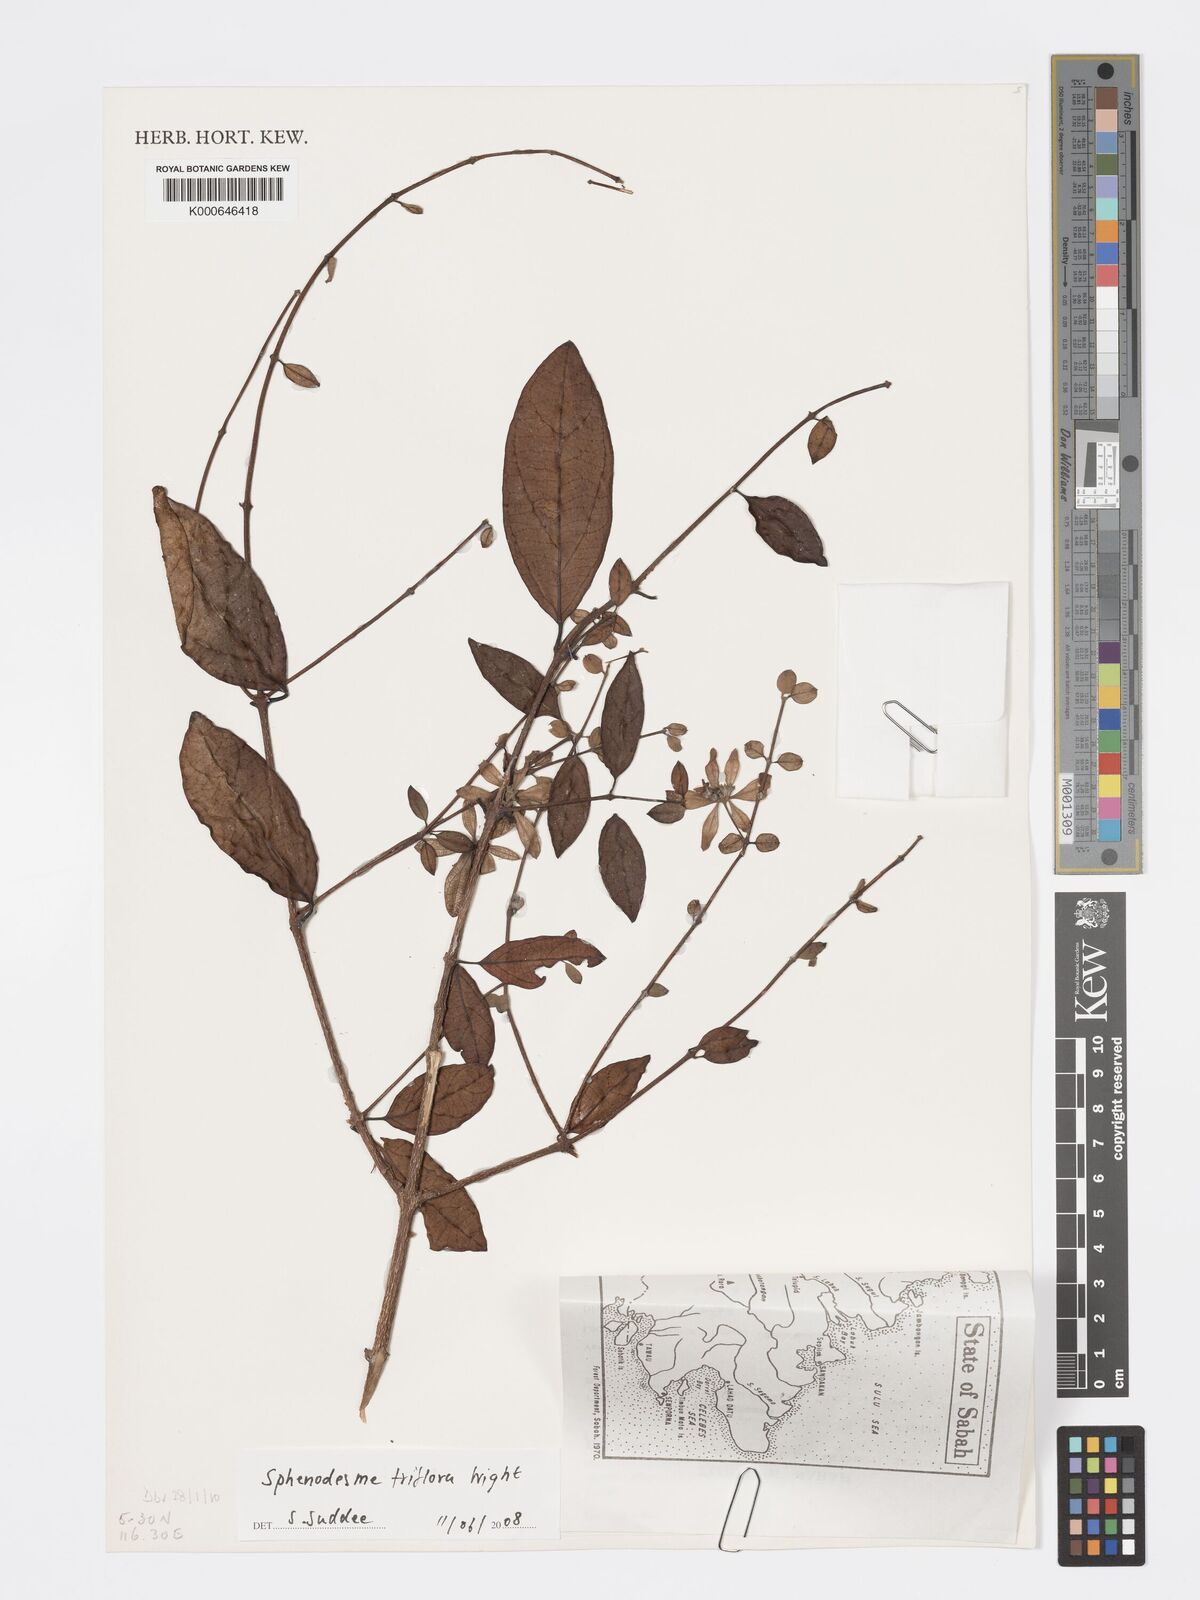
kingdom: Plantae
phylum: Tracheophyta
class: Magnoliopsida
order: Lamiales
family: Lamiaceae
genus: Sphenodesme
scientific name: Sphenodesme triflora
